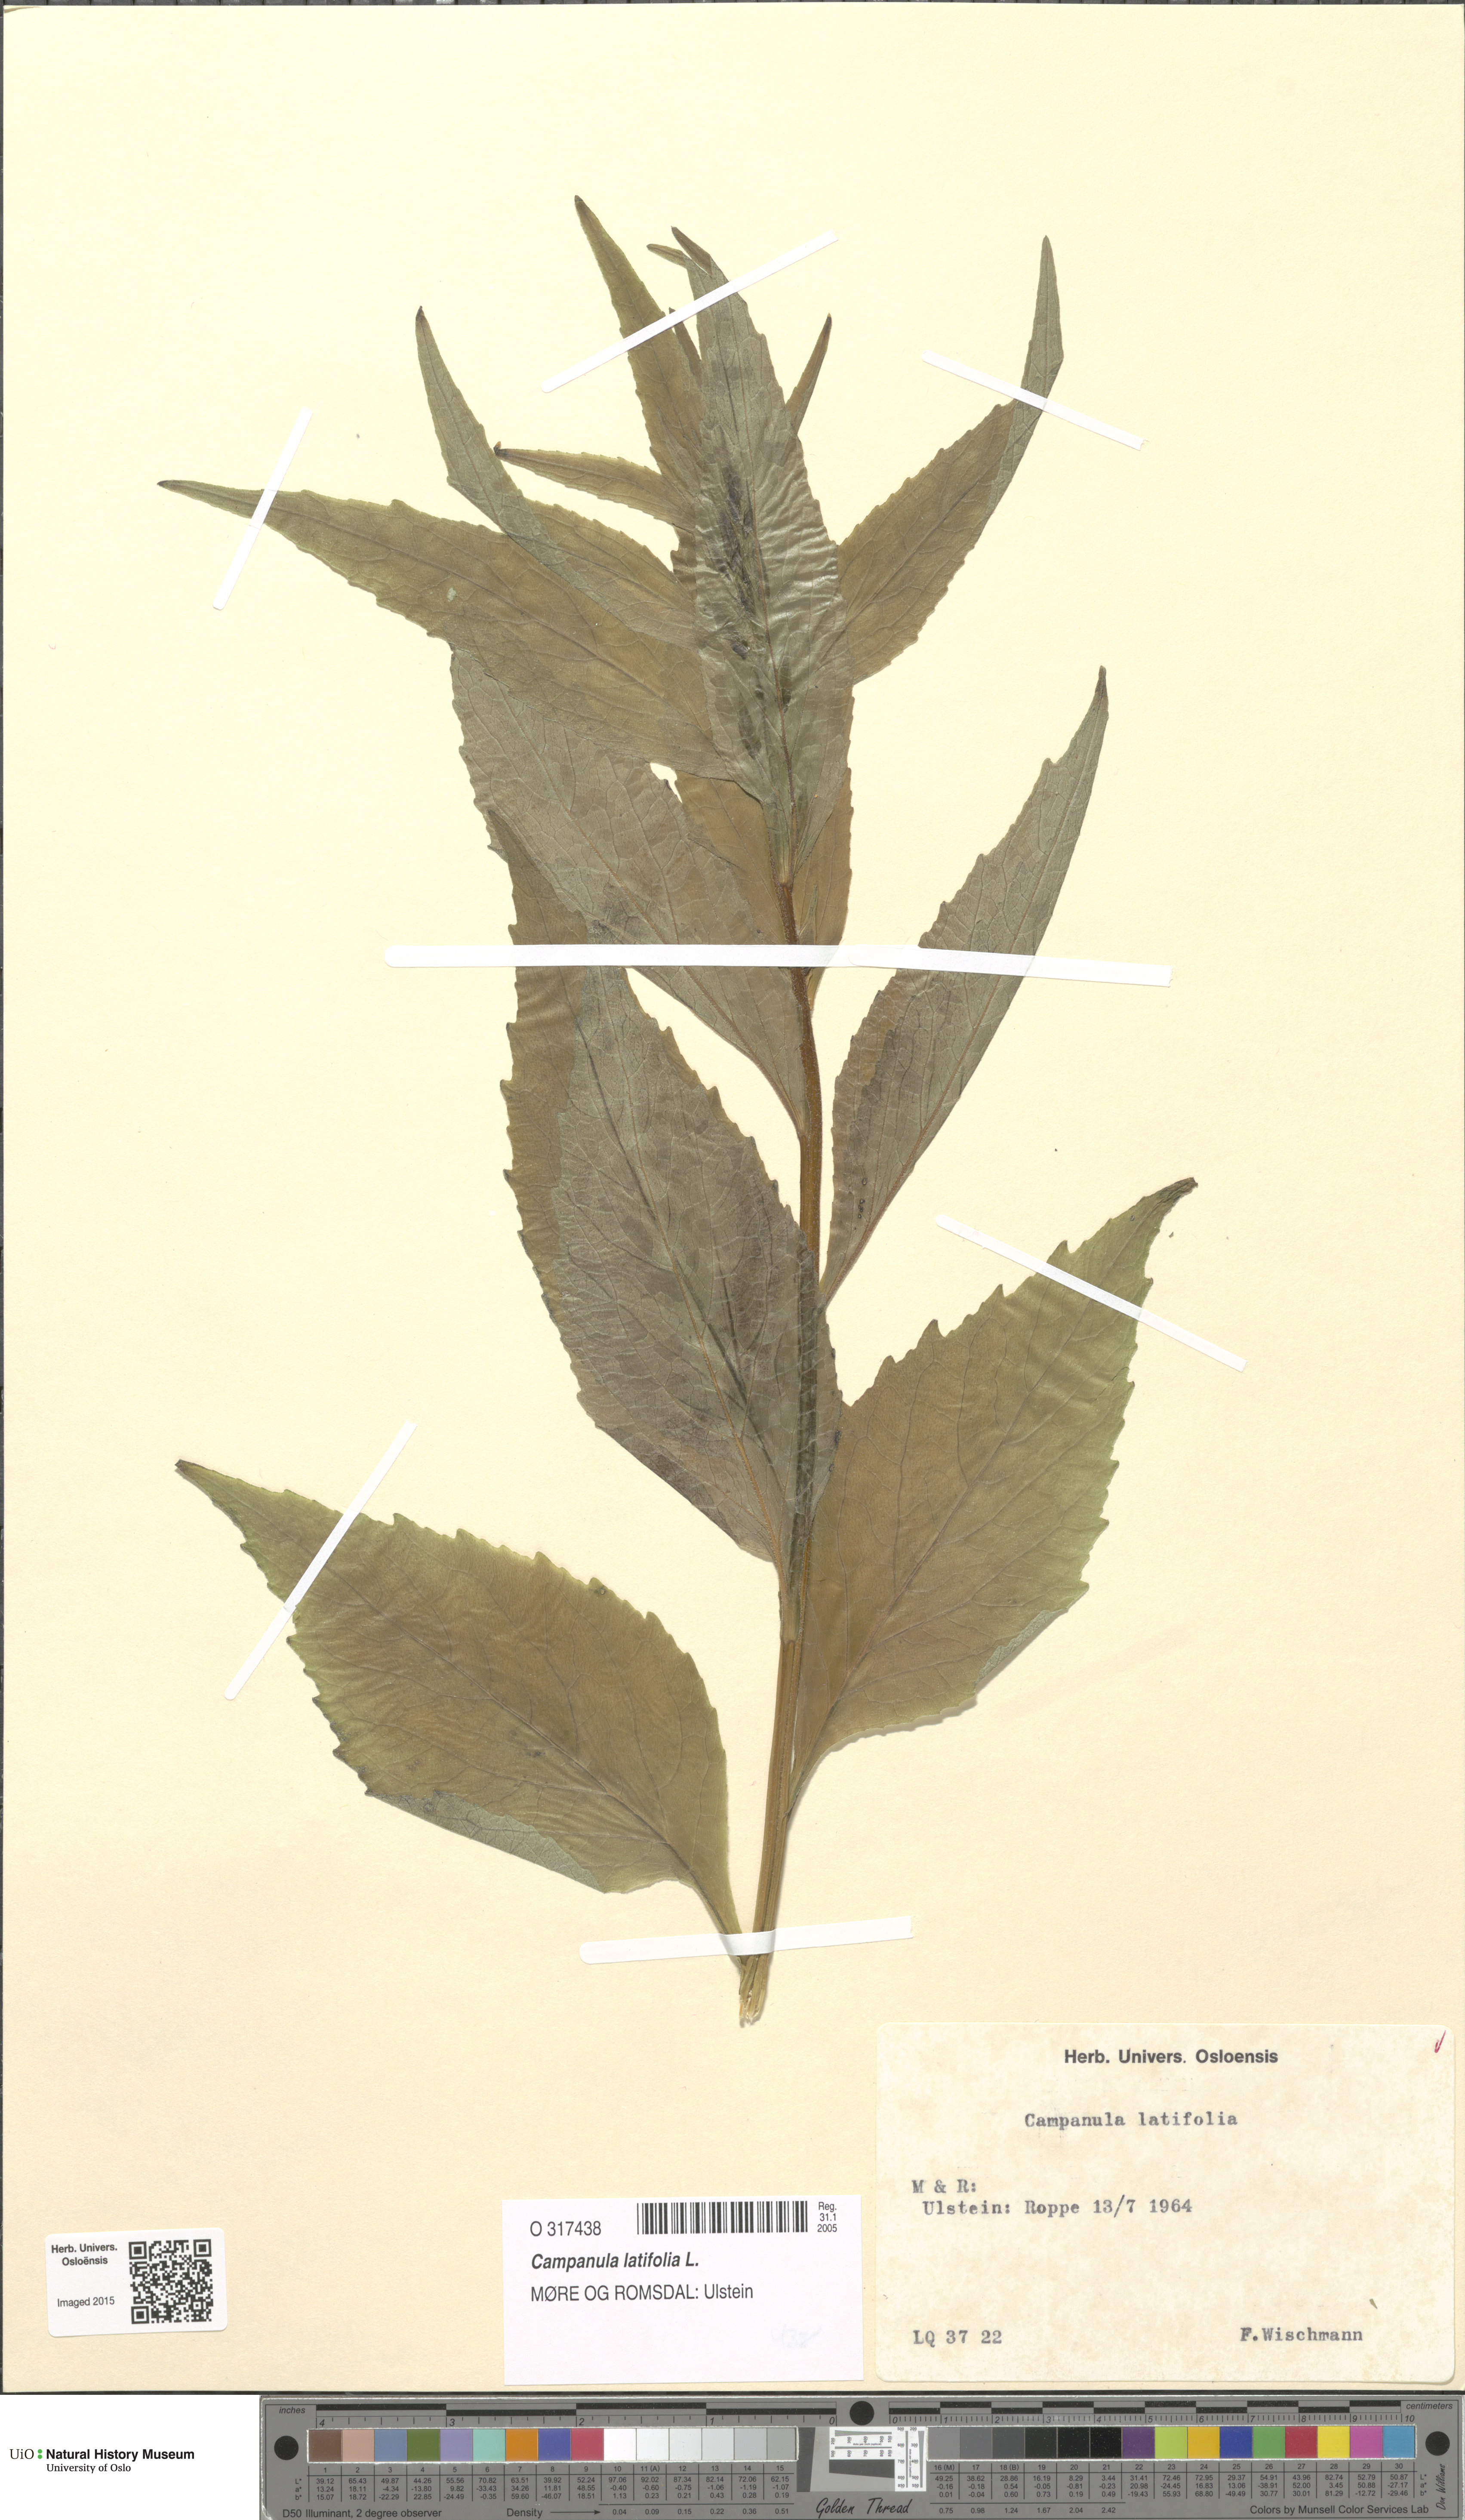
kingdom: Plantae
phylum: Tracheophyta
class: Magnoliopsida
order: Asterales
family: Campanulaceae
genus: Campanula
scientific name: Campanula latifolia
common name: Giant bellflower
